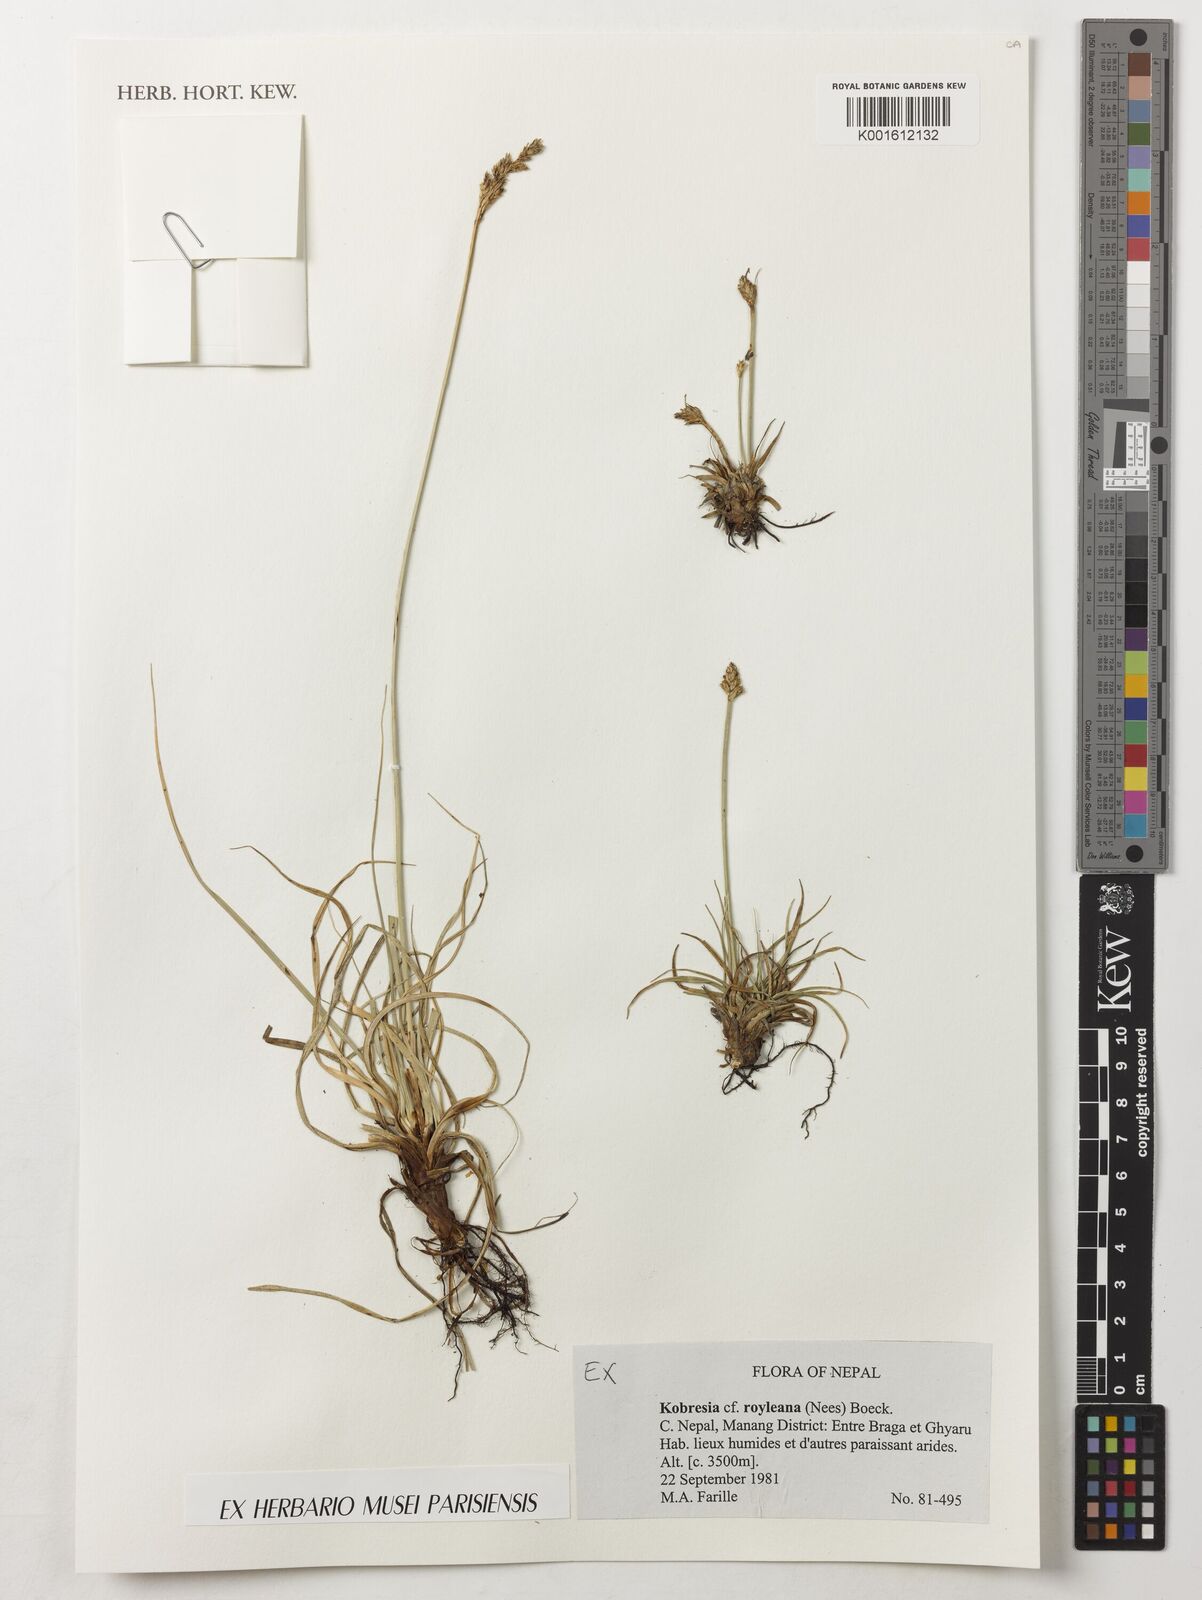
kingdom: Plantae
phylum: Tracheophyta
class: Liliopsida
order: Poales
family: Cyperaceae
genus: Carex
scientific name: Carex kokanica
